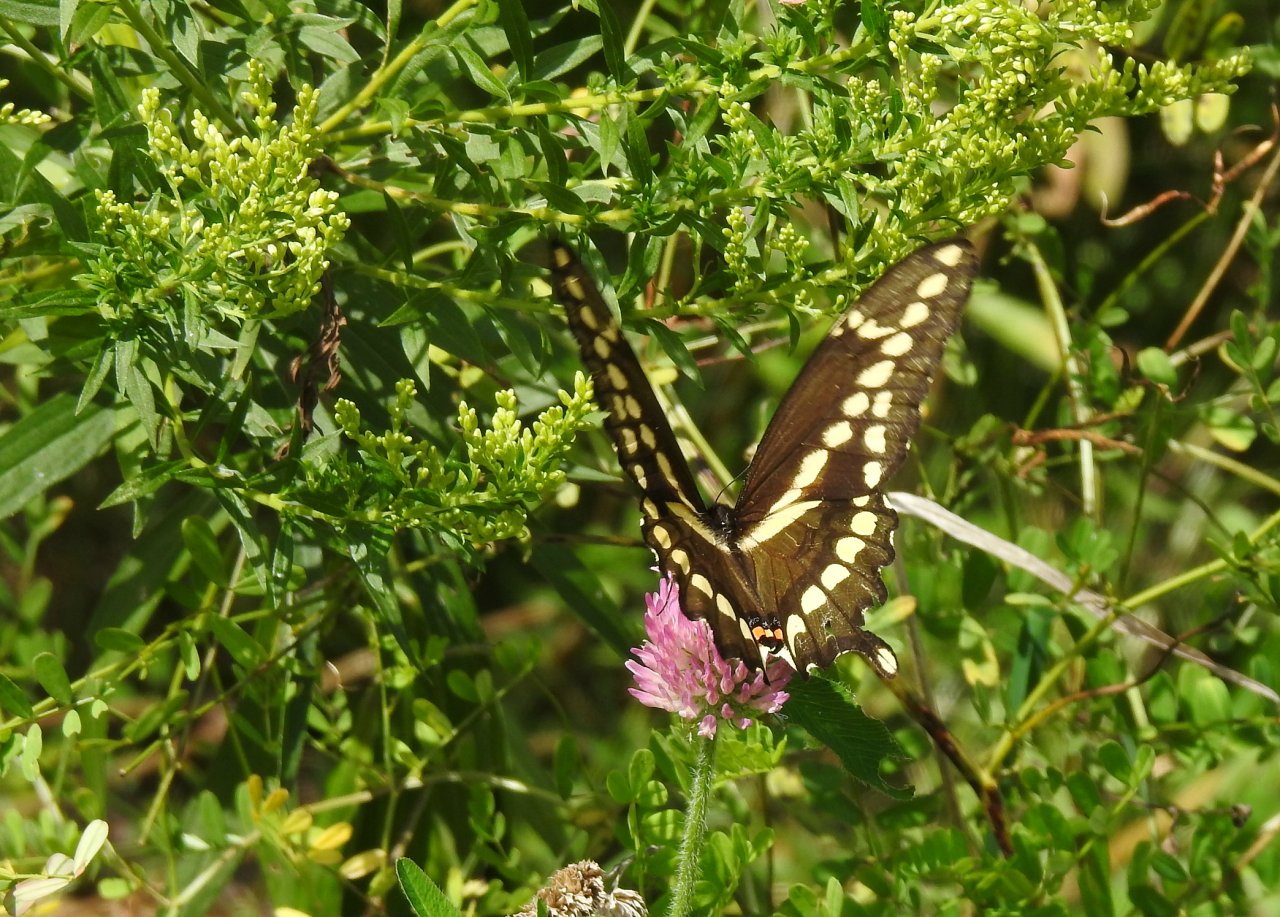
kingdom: Animalia
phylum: Arthropoda
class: Insecta
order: Lepidoptera
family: Papilionidae
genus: Papilio
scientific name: Papilio cresphontes
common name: Eastern Giant Swallowtail
